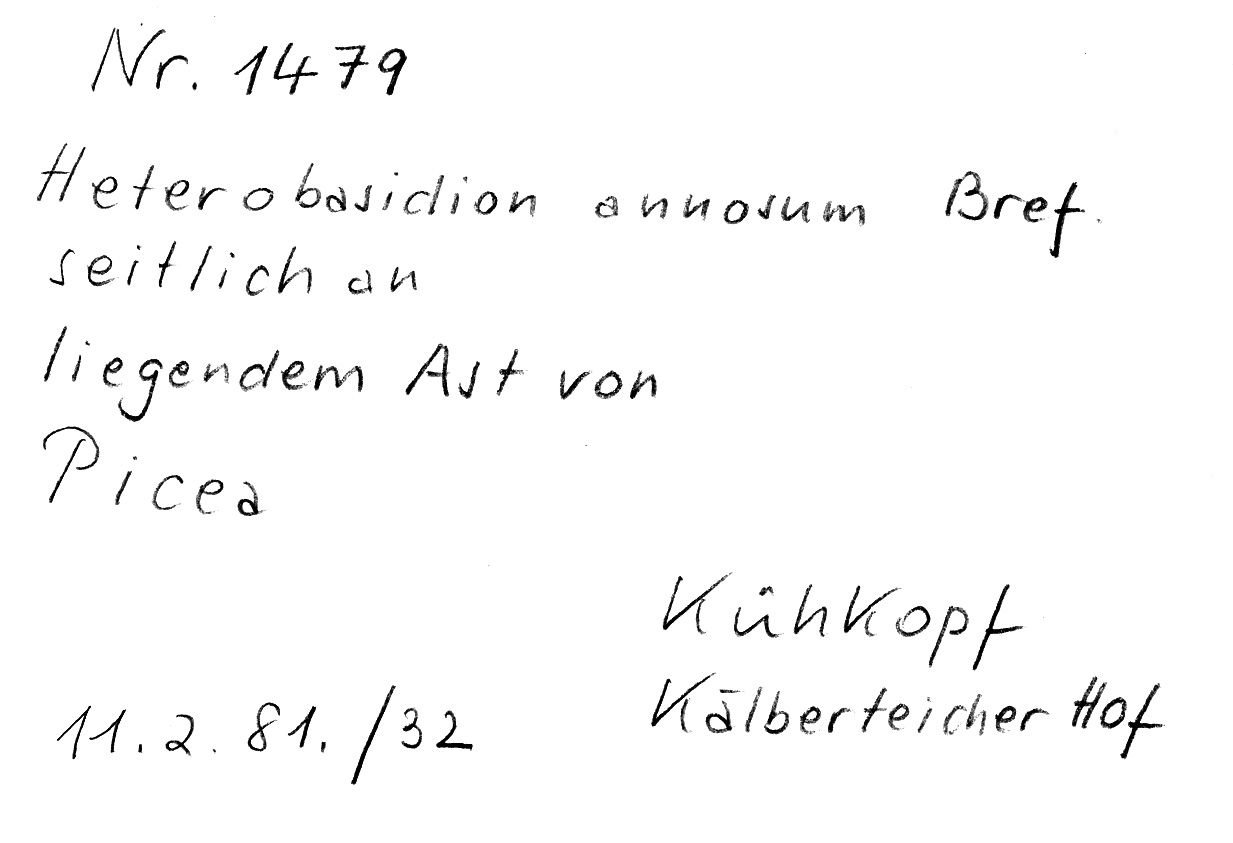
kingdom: Plantae
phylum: Tracheophyta
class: Pinopsida
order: Pinales
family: Pinaceae
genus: Picea
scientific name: Picea
